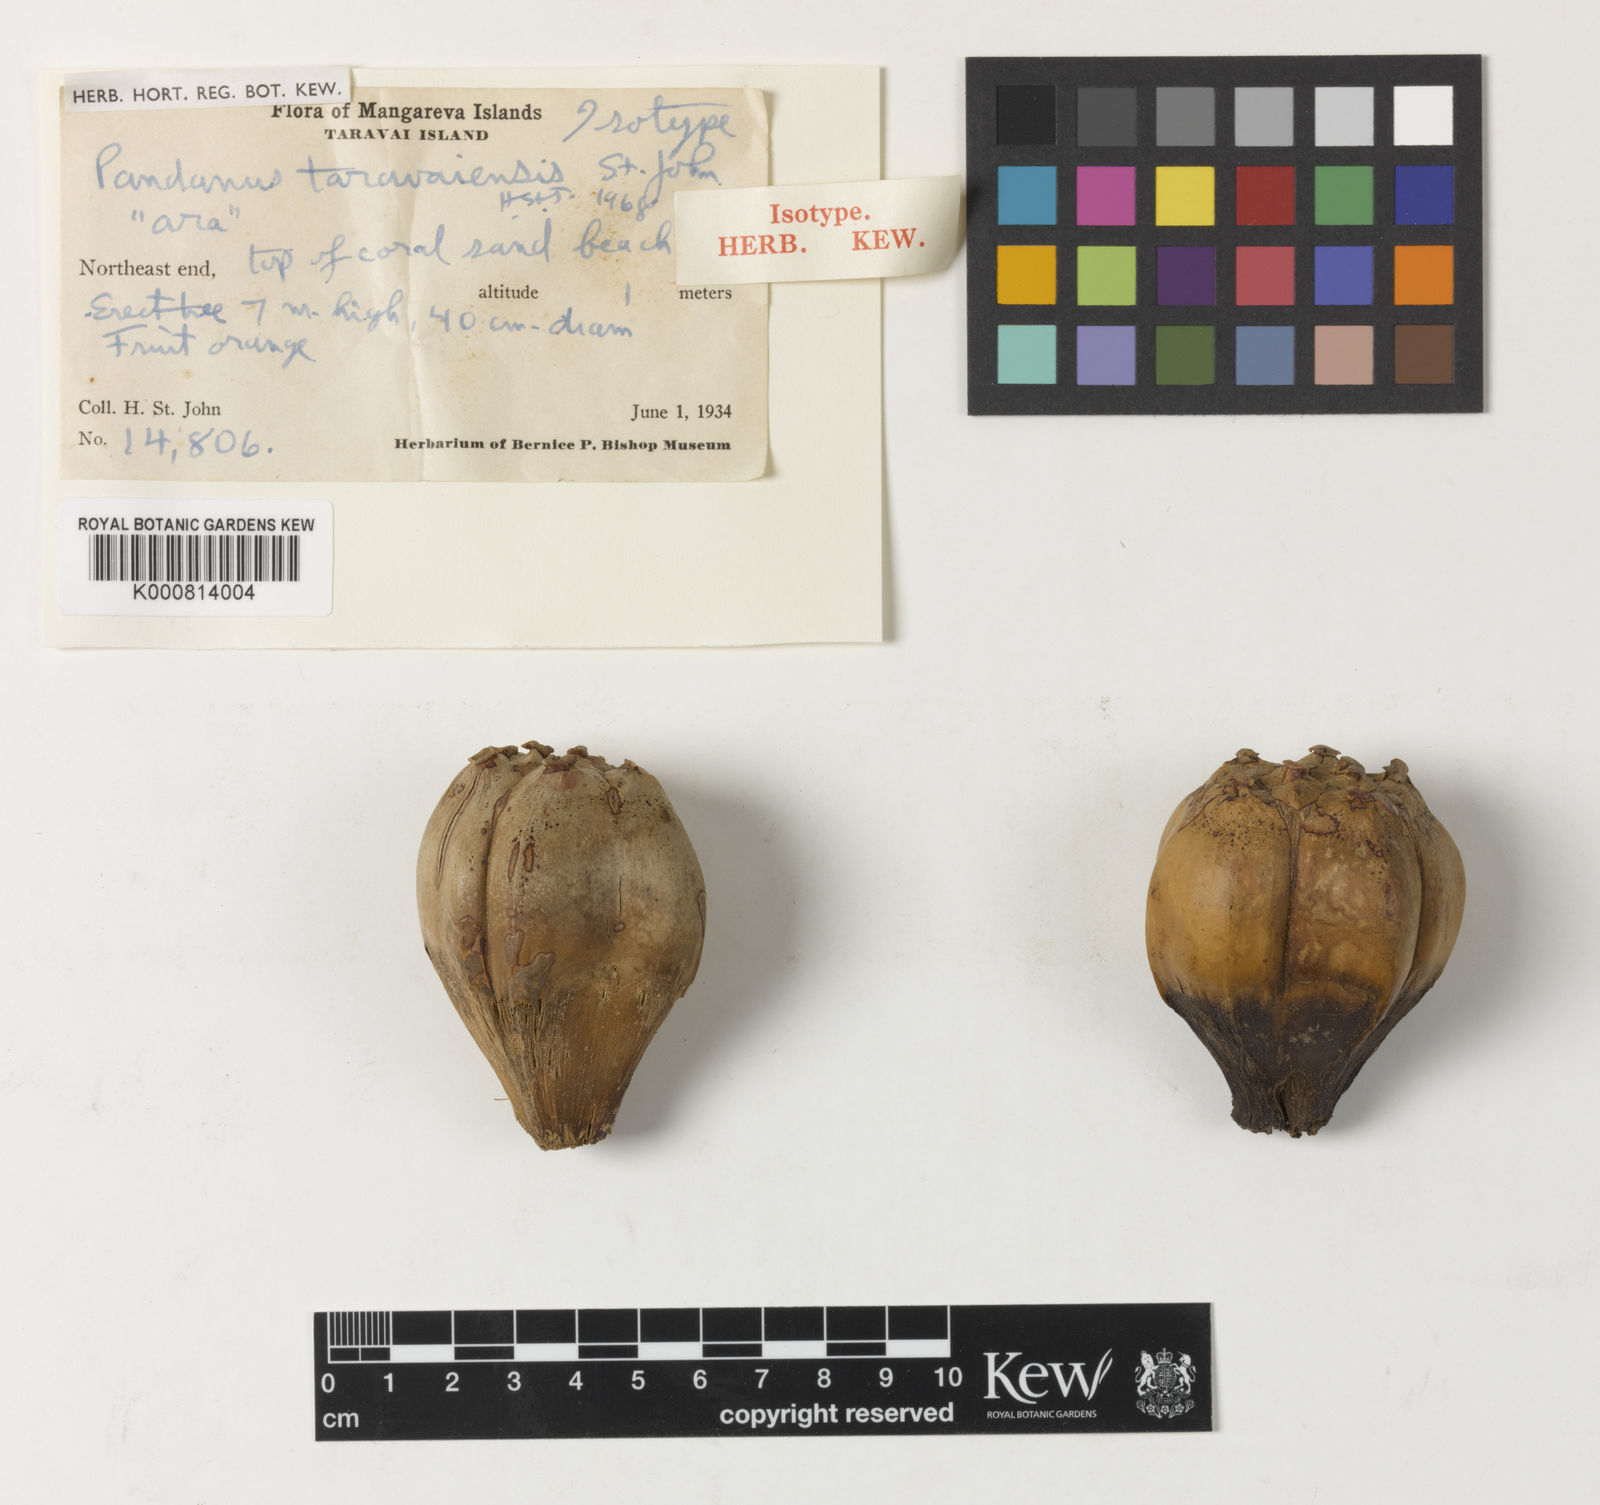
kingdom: Plantae
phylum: Tracheophyta
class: Liliopsida
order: Pandanales
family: Pandanaceae
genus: Pandanus
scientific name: Pandanus tectorius
